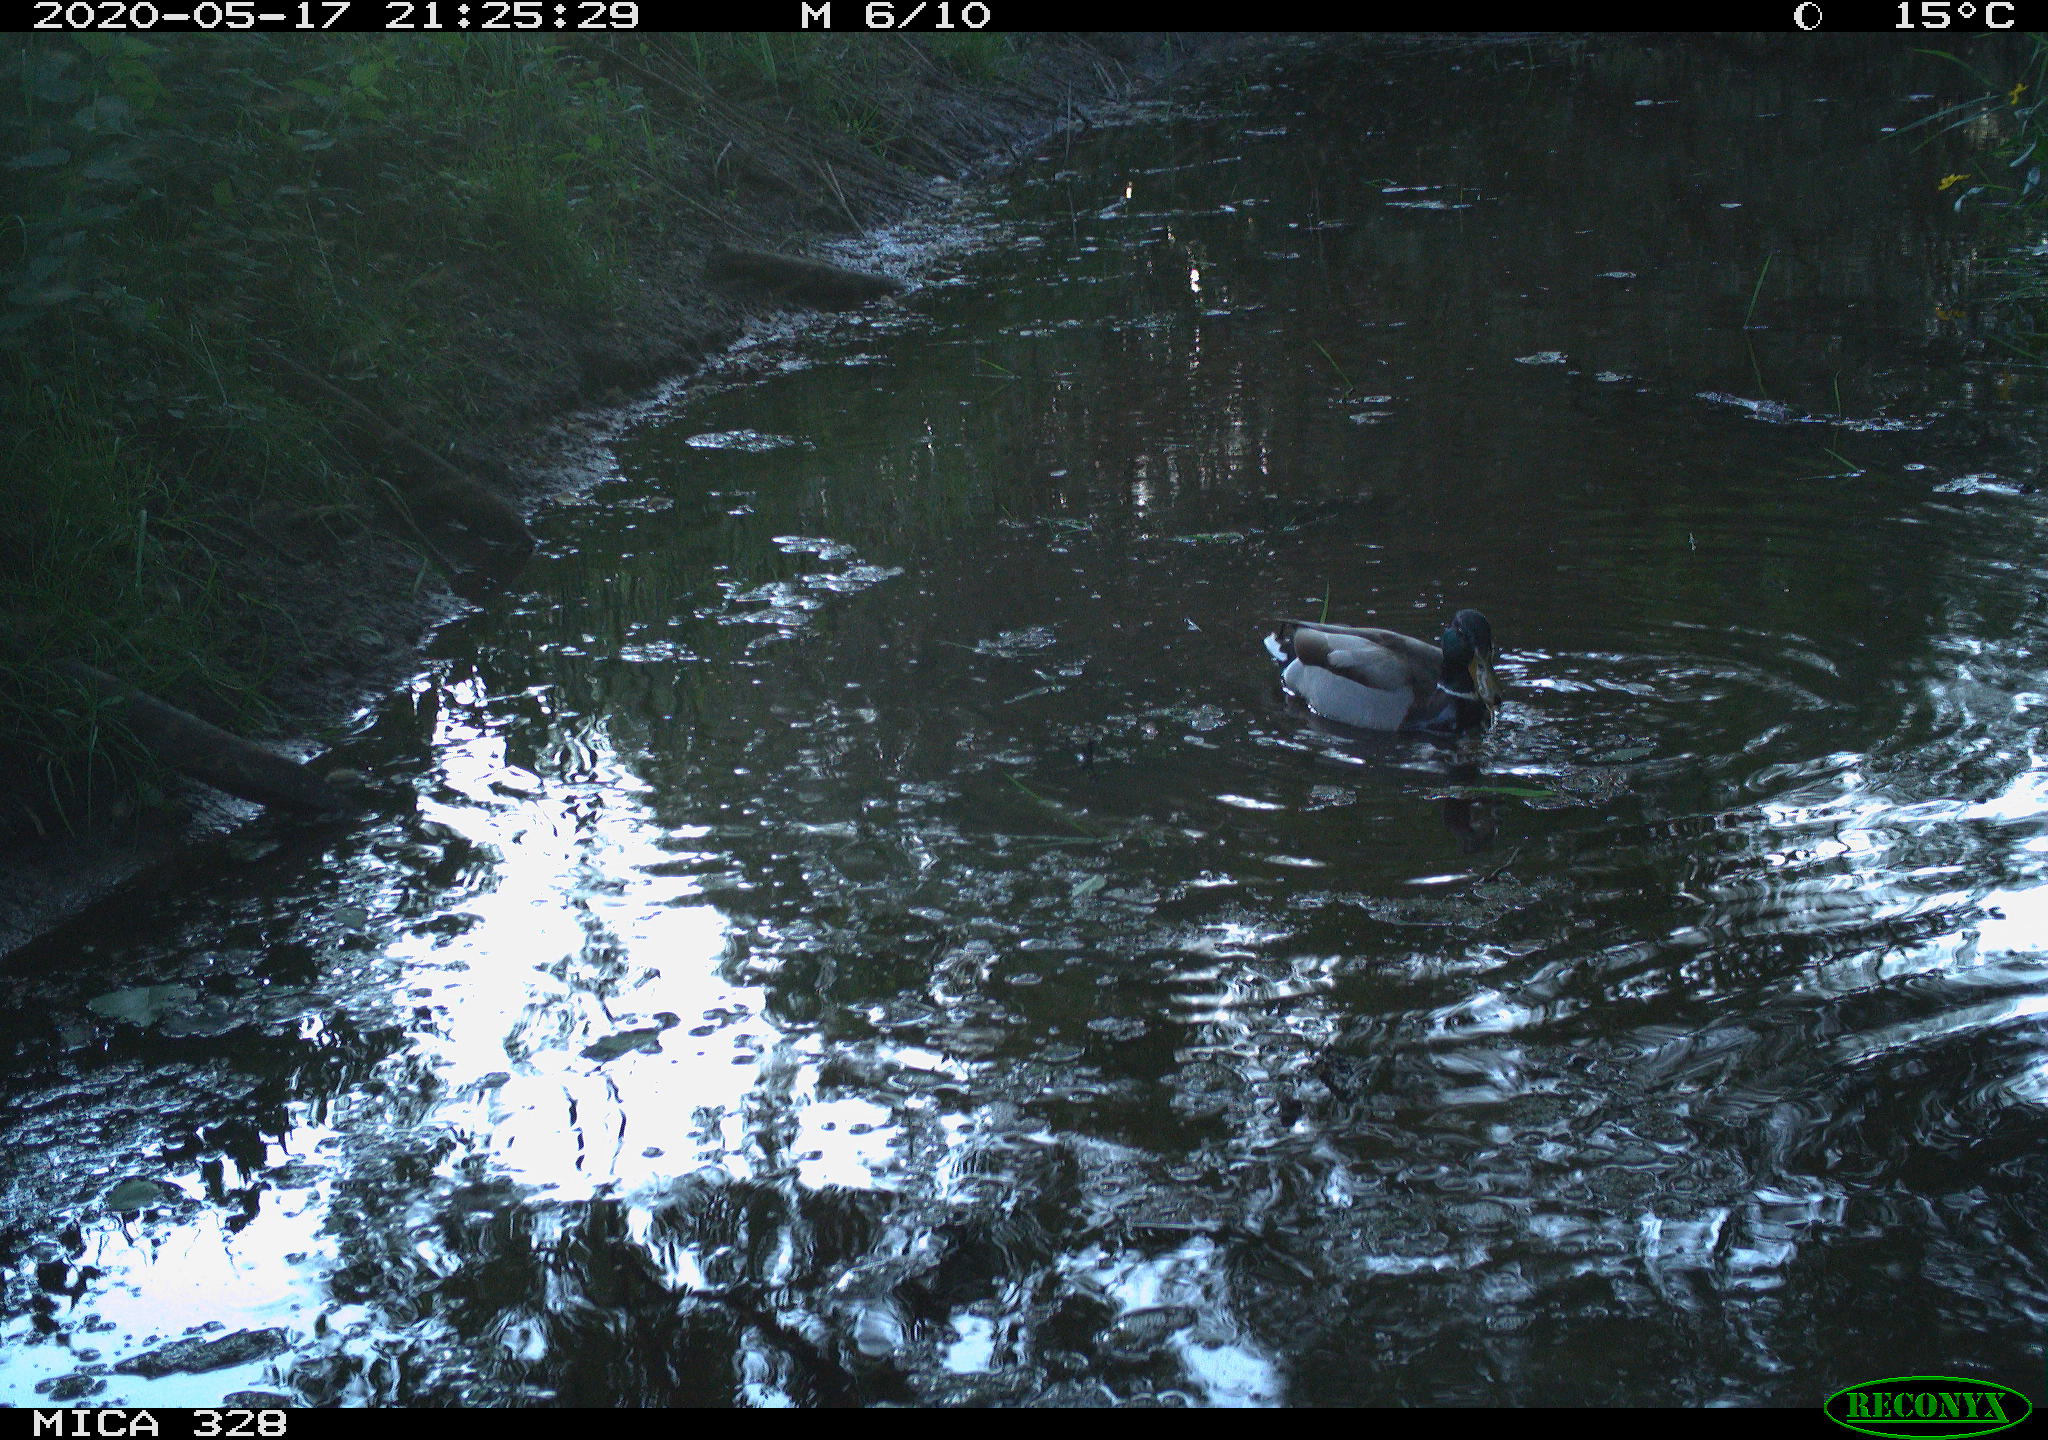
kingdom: Animalia
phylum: Chordata
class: Aves
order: Anseriformes
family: Anatidae
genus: Anas
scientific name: Anas platyrhynchos
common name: Mallard
